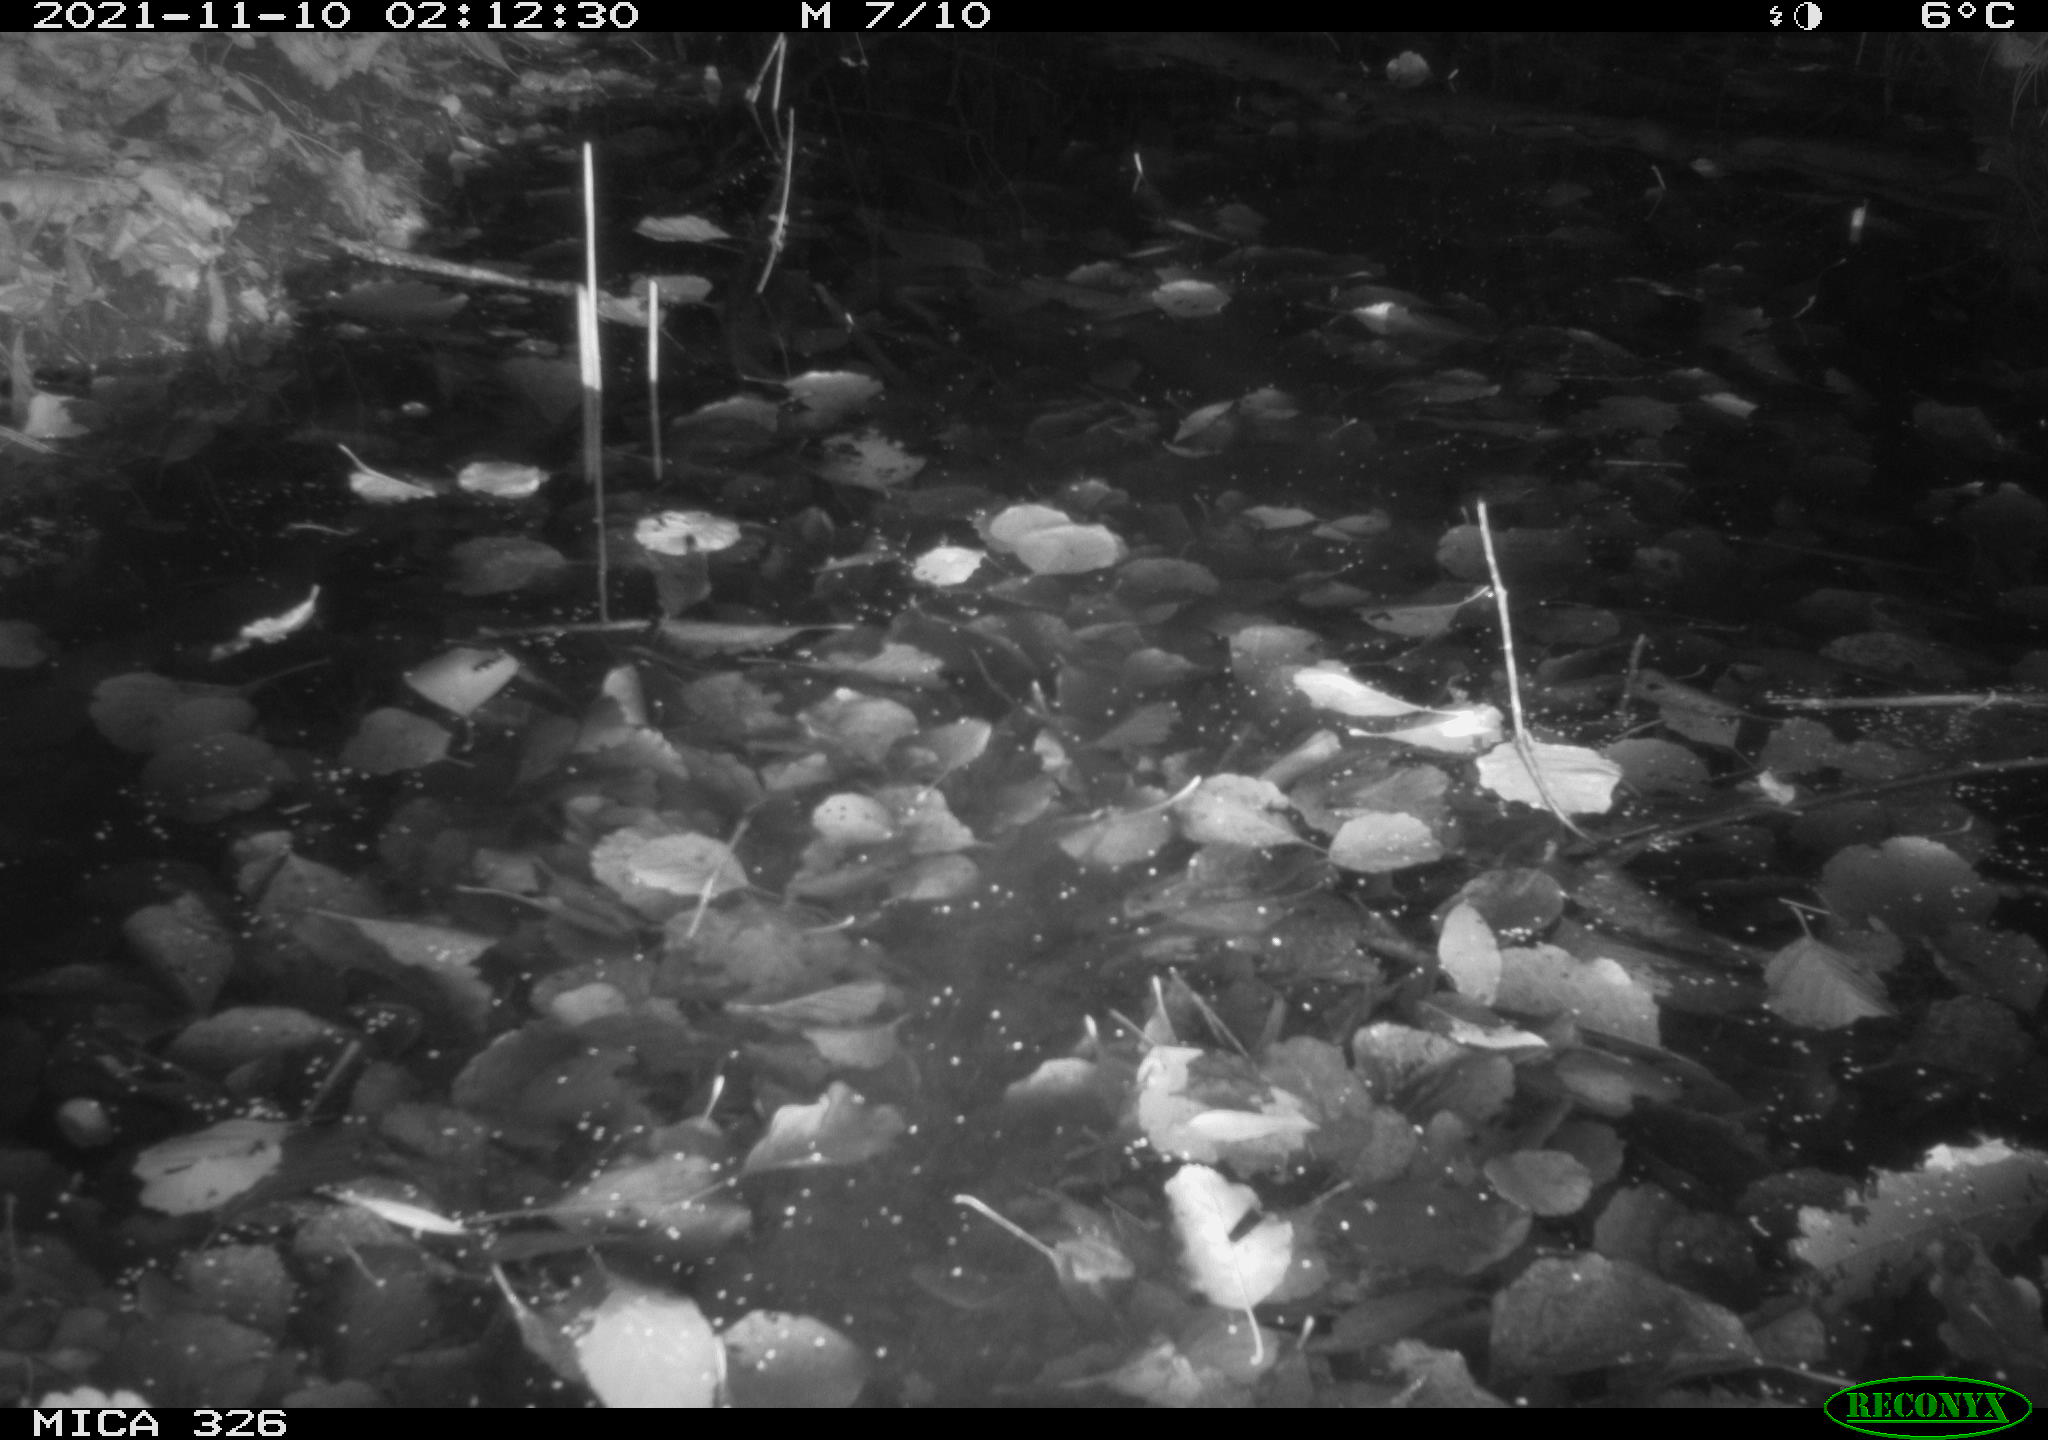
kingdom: Animalia
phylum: Chordata
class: Mammalia
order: Rodentia
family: Myocastoridae
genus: Myocastor
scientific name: Myocastor coypus
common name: Coypu
